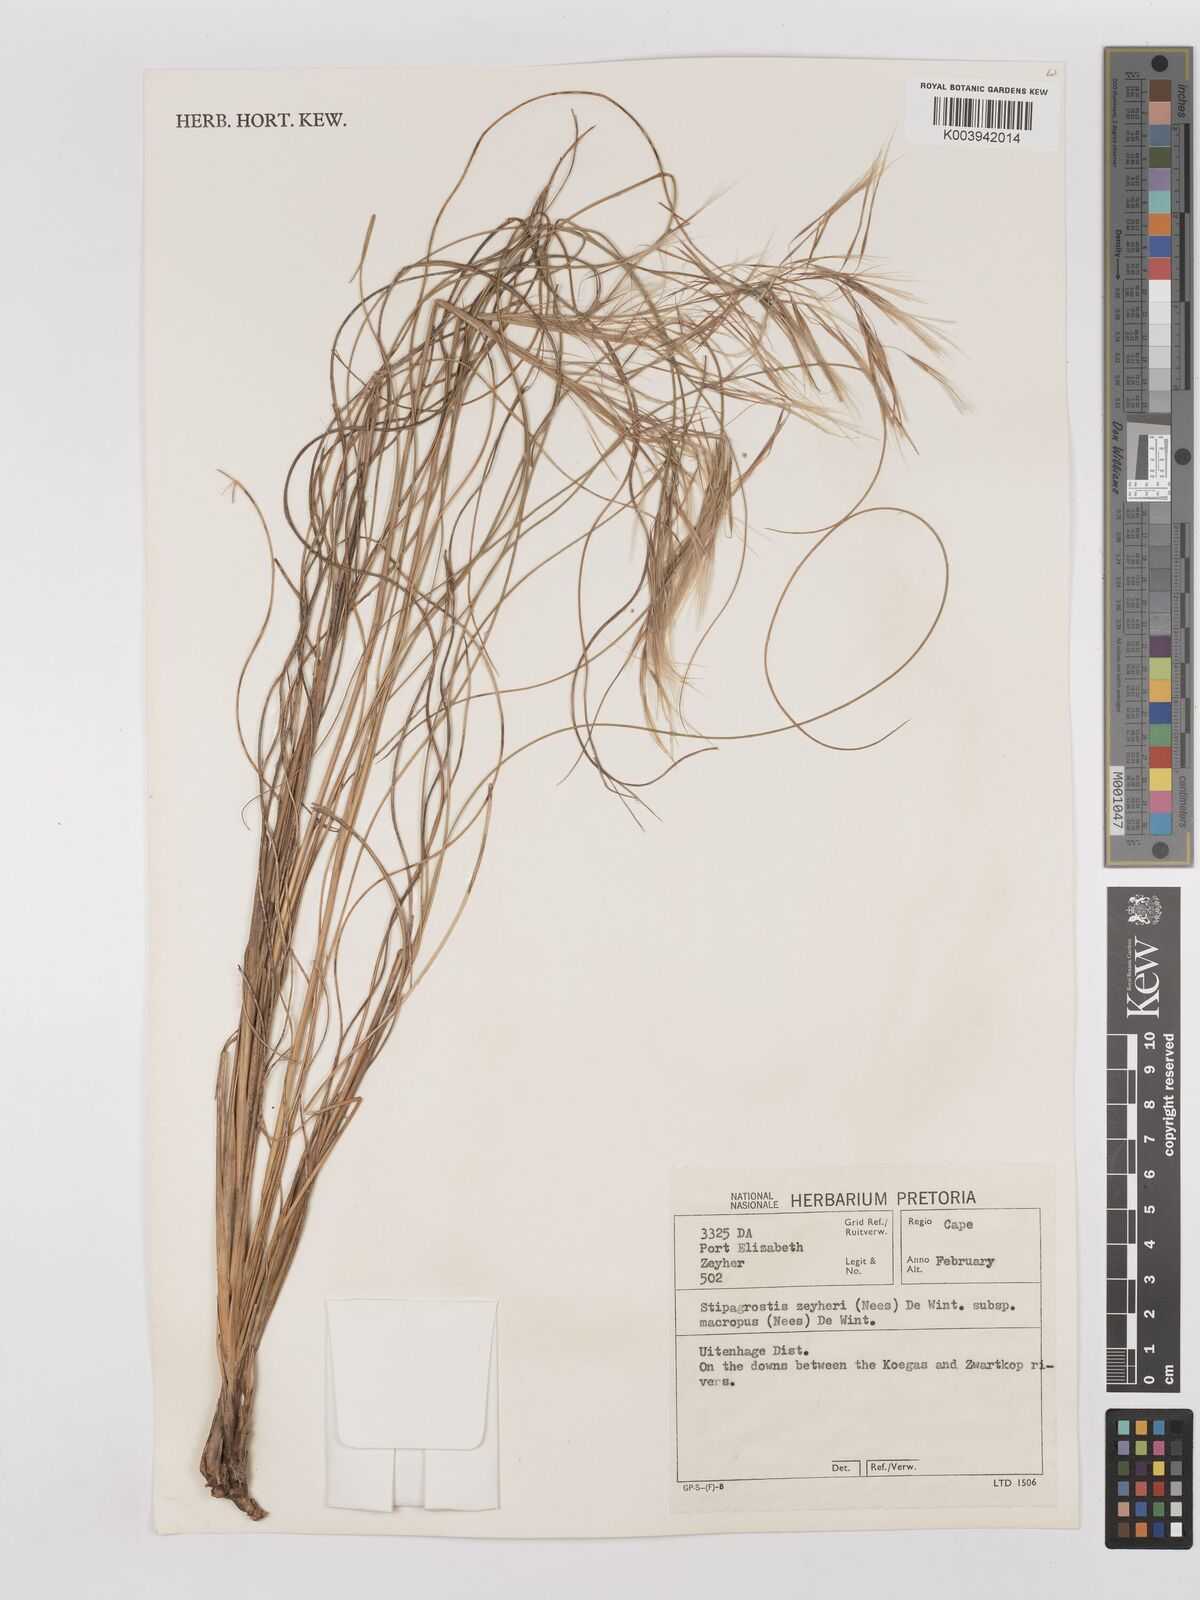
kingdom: Plantae
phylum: Tracheophyta
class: Liliopsida
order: Poales
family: Poaceae
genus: Stipagrostis
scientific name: Stipagrostis zeyheri
